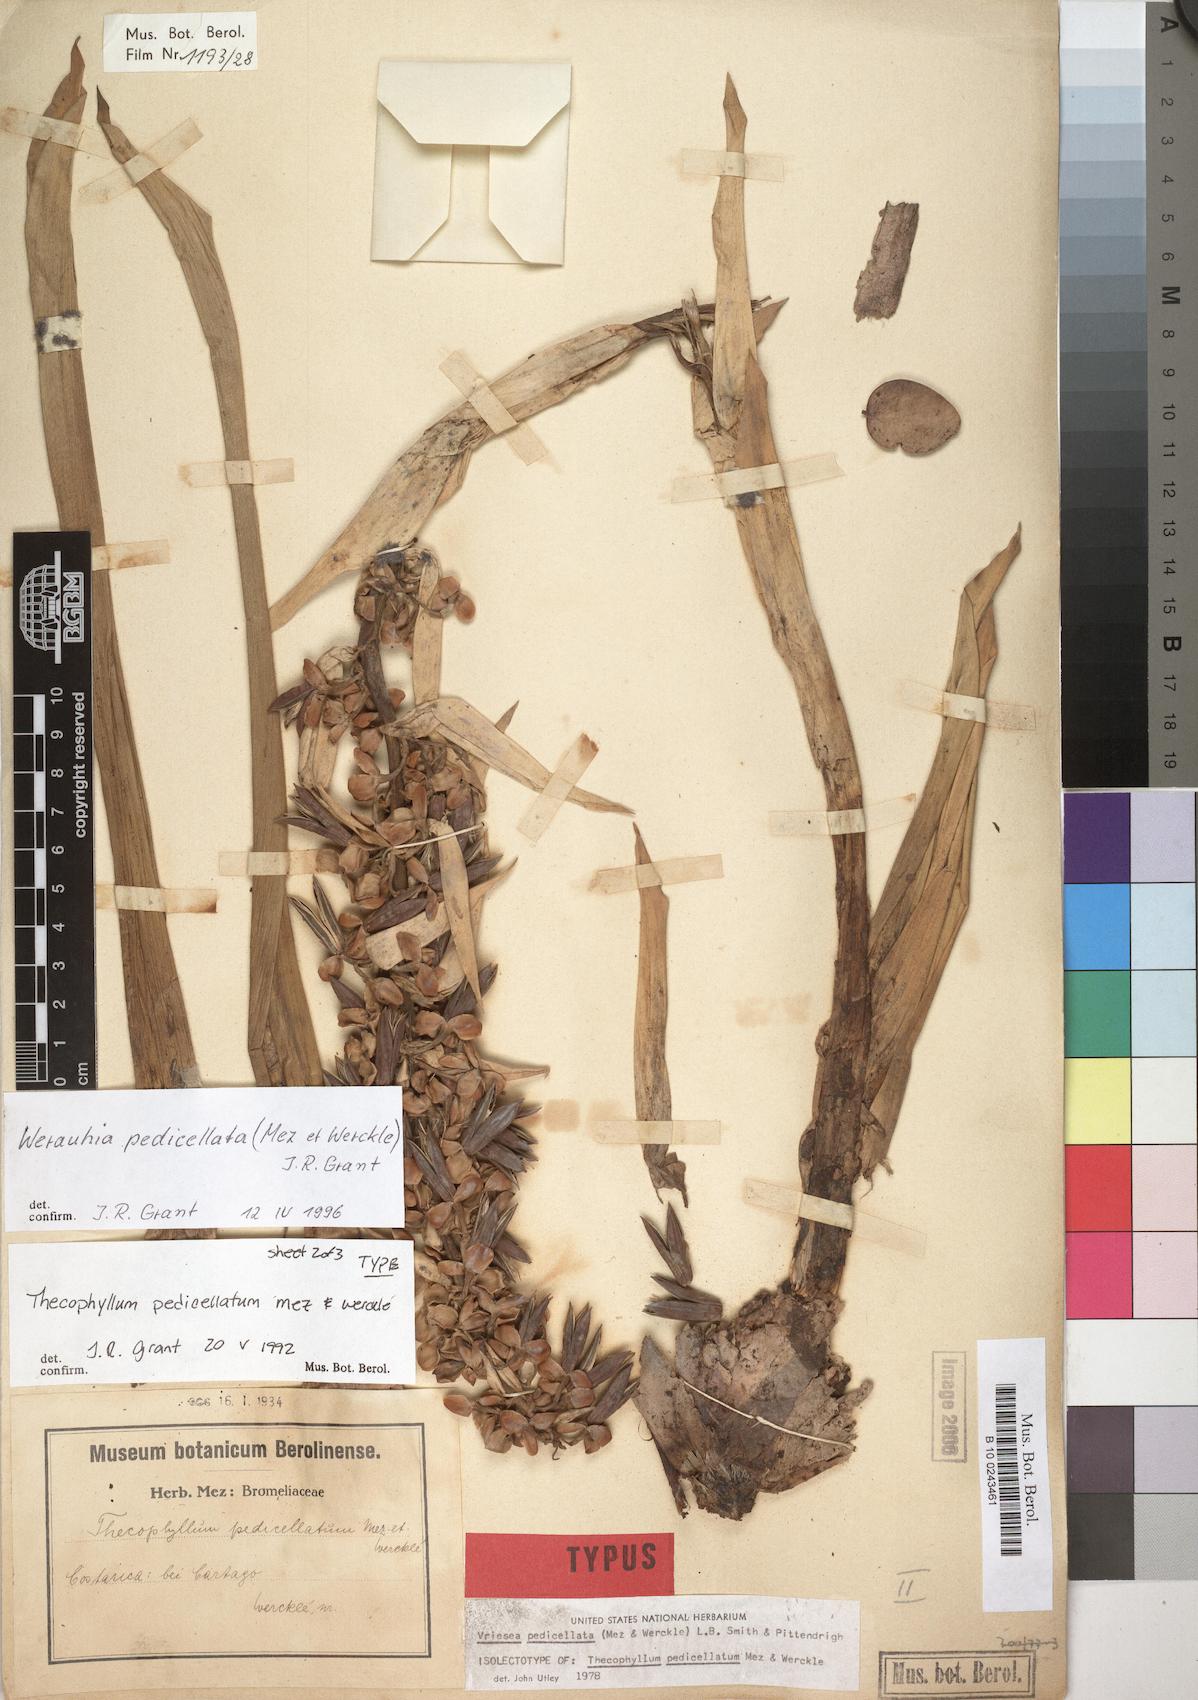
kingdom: Plantae
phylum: Tracheophyta
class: Liliopsida
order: Poales
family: Bromeliaceae
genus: Werauhia
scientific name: Werauhia pedicellata
